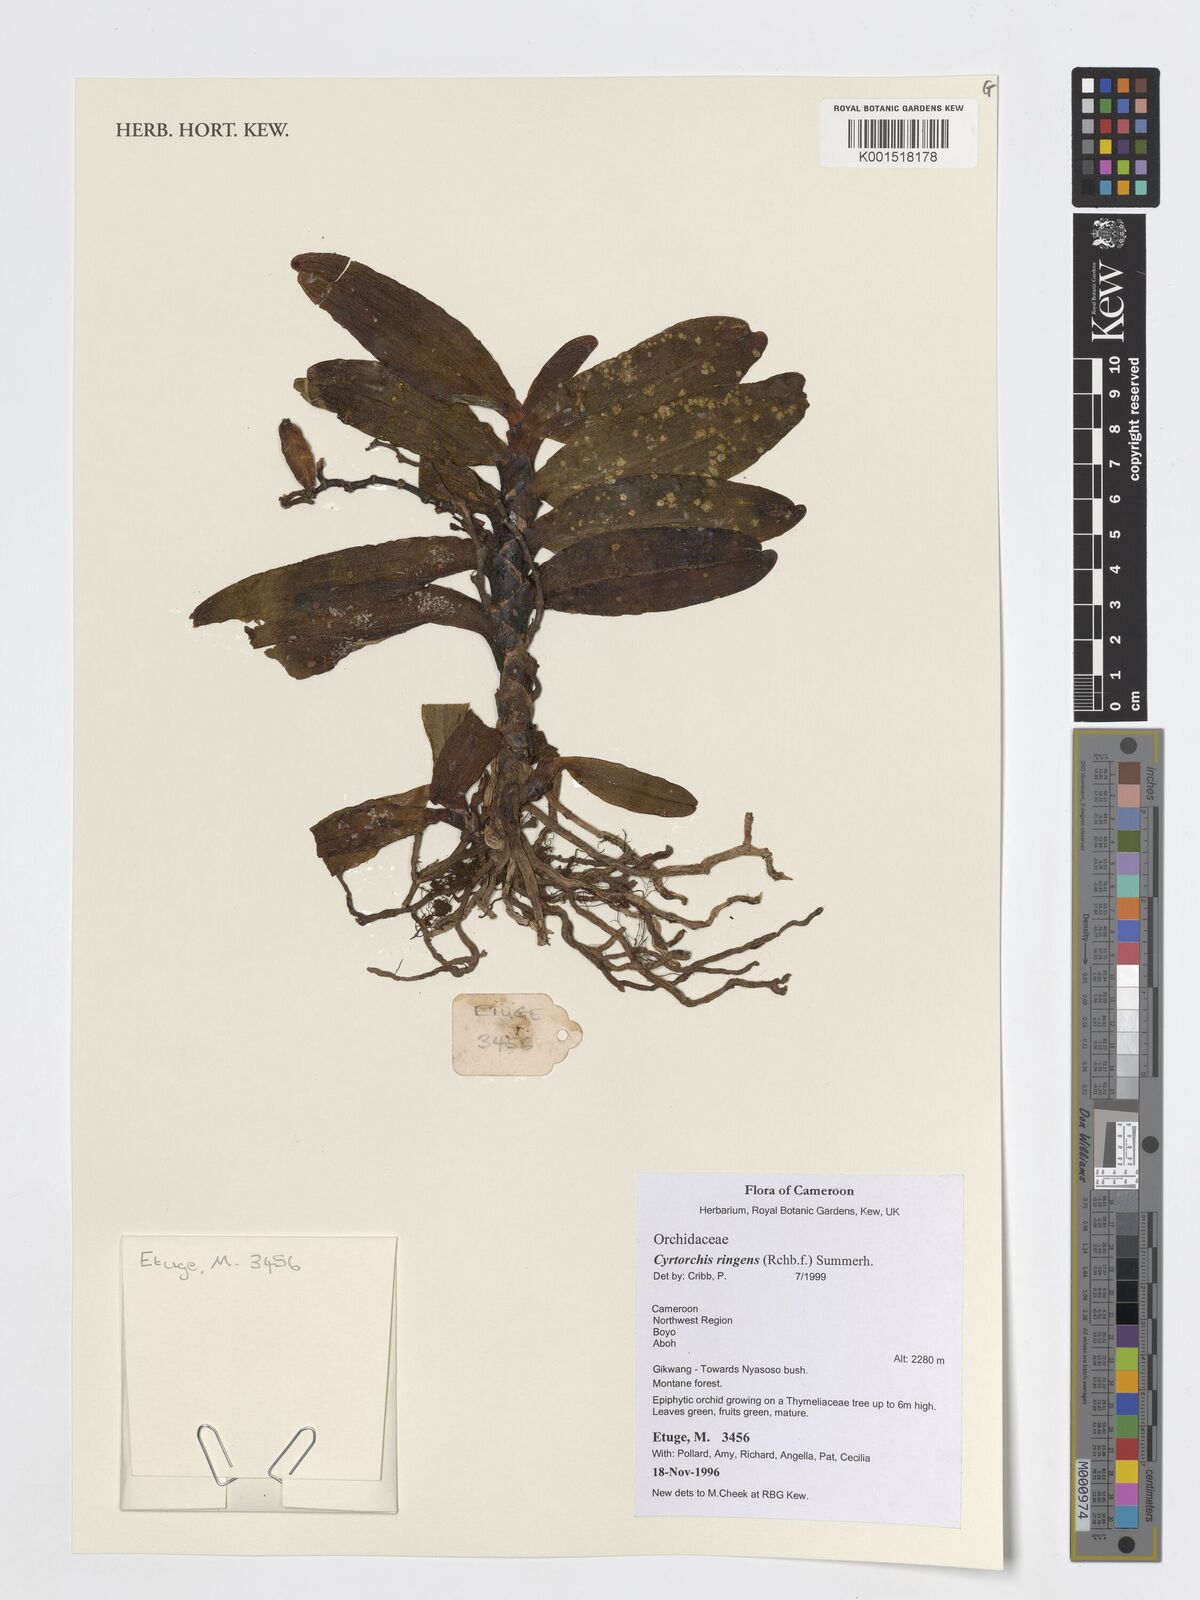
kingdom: Plantae
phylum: Tracheophyta
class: Liliopsida
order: Asparagales
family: Orchidaceae
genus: Cyrtorchis
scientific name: Cyrtorchis ringens
